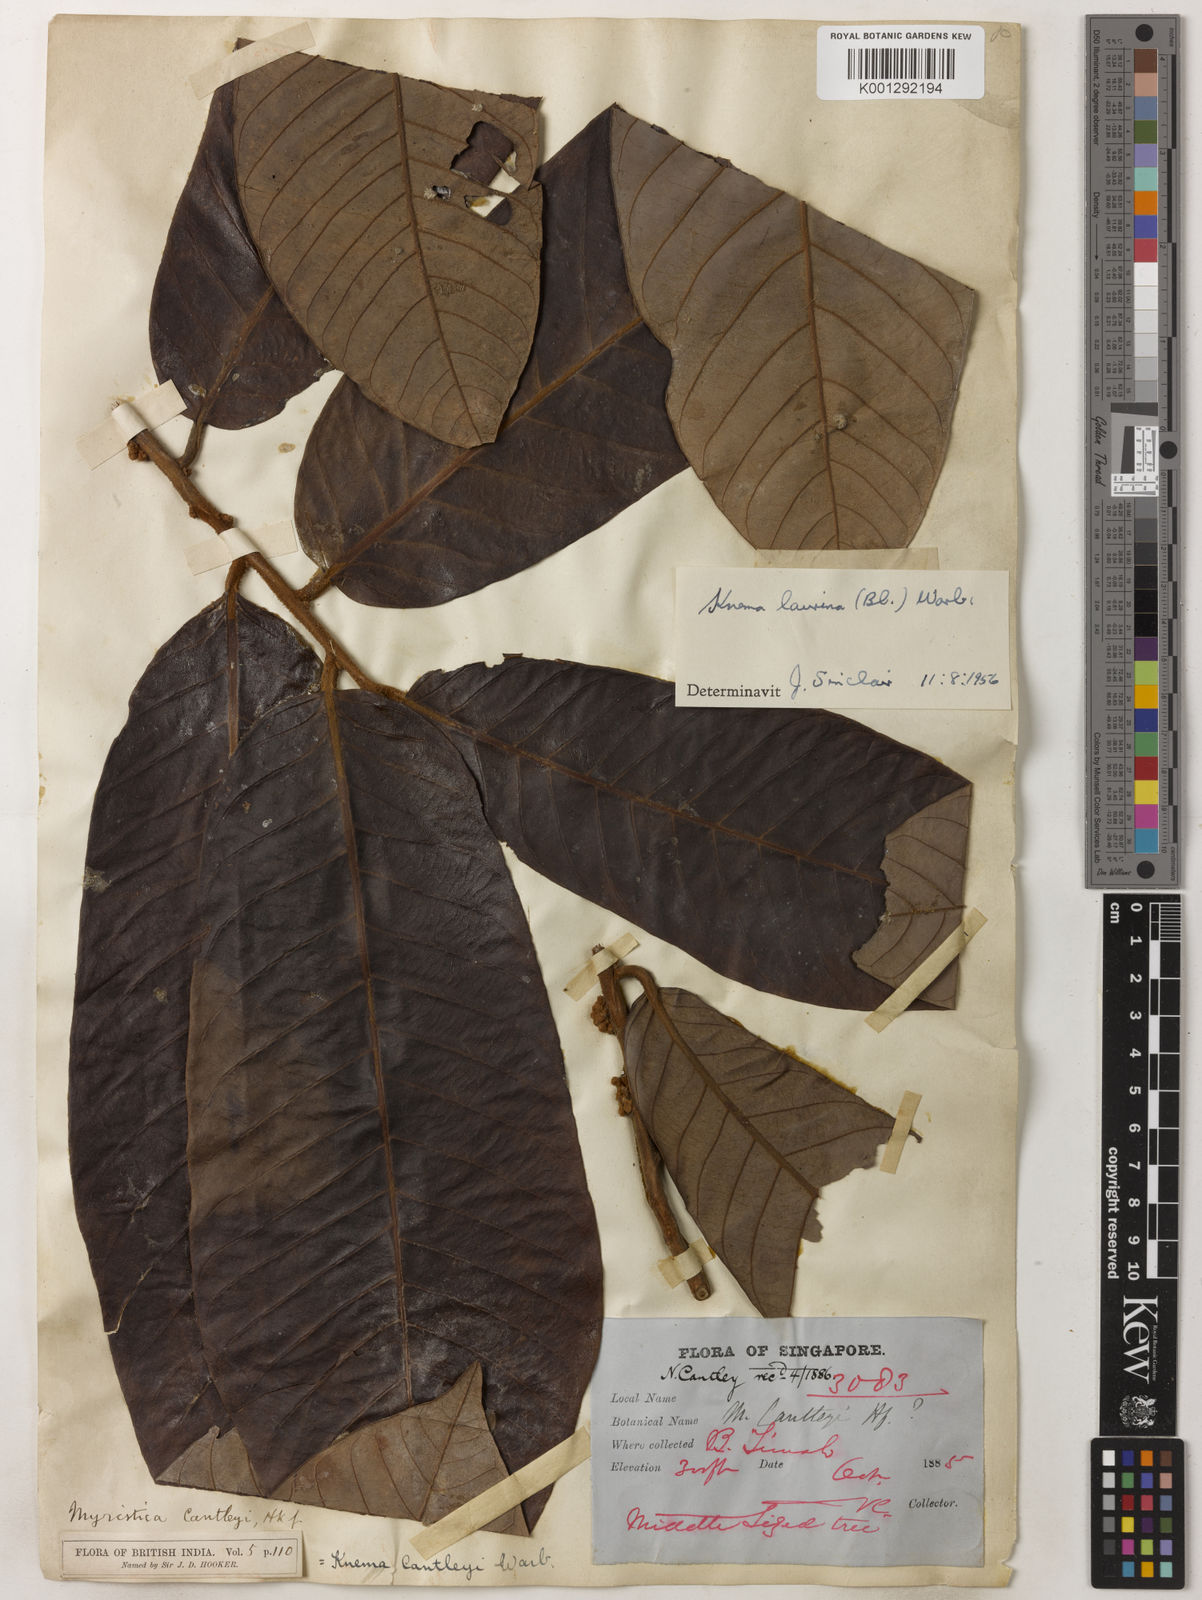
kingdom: Plantae
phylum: Tracheophyta
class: Magnoliopsida
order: Magnoliales
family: Myristicaceae
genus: Knema
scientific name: Knema laurina
